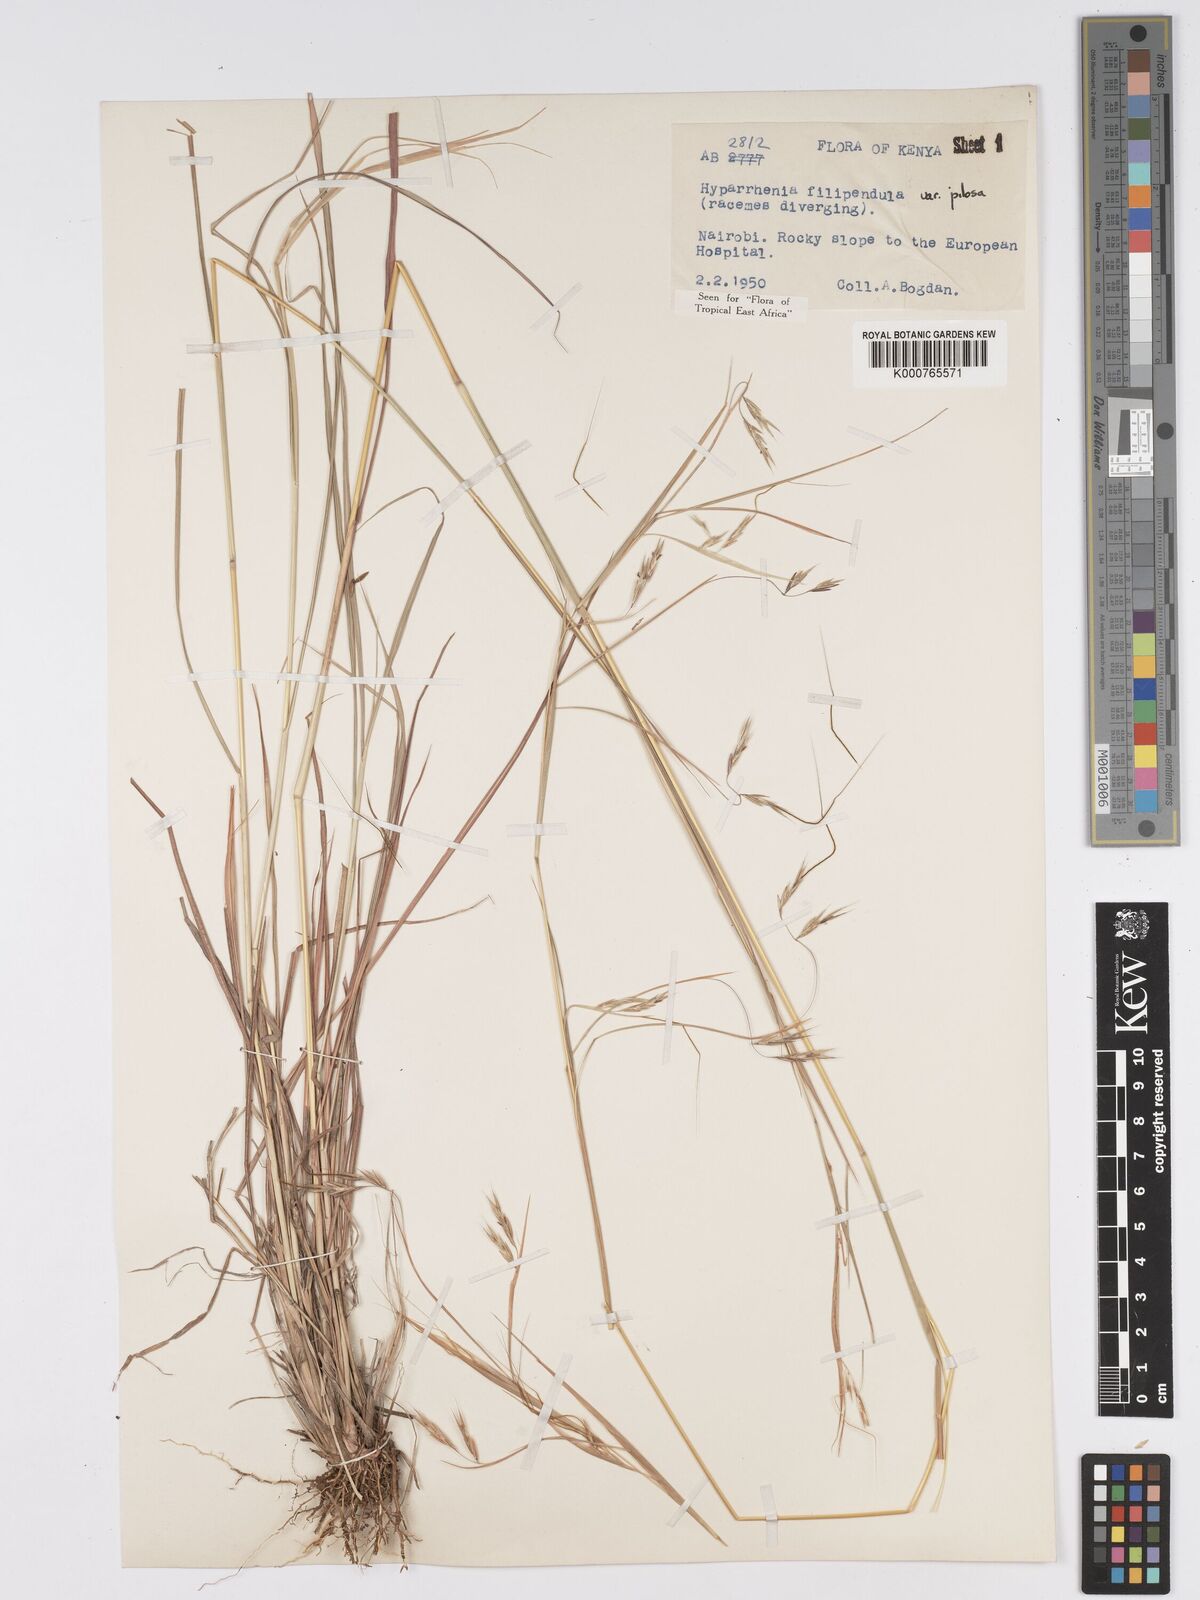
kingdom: Plantae
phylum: Tracheophyta
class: Liliopsida
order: Poales
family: Poaceae
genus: Hyparrhenia
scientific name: Hyparrhenia filipendula
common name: Tambookie grass
